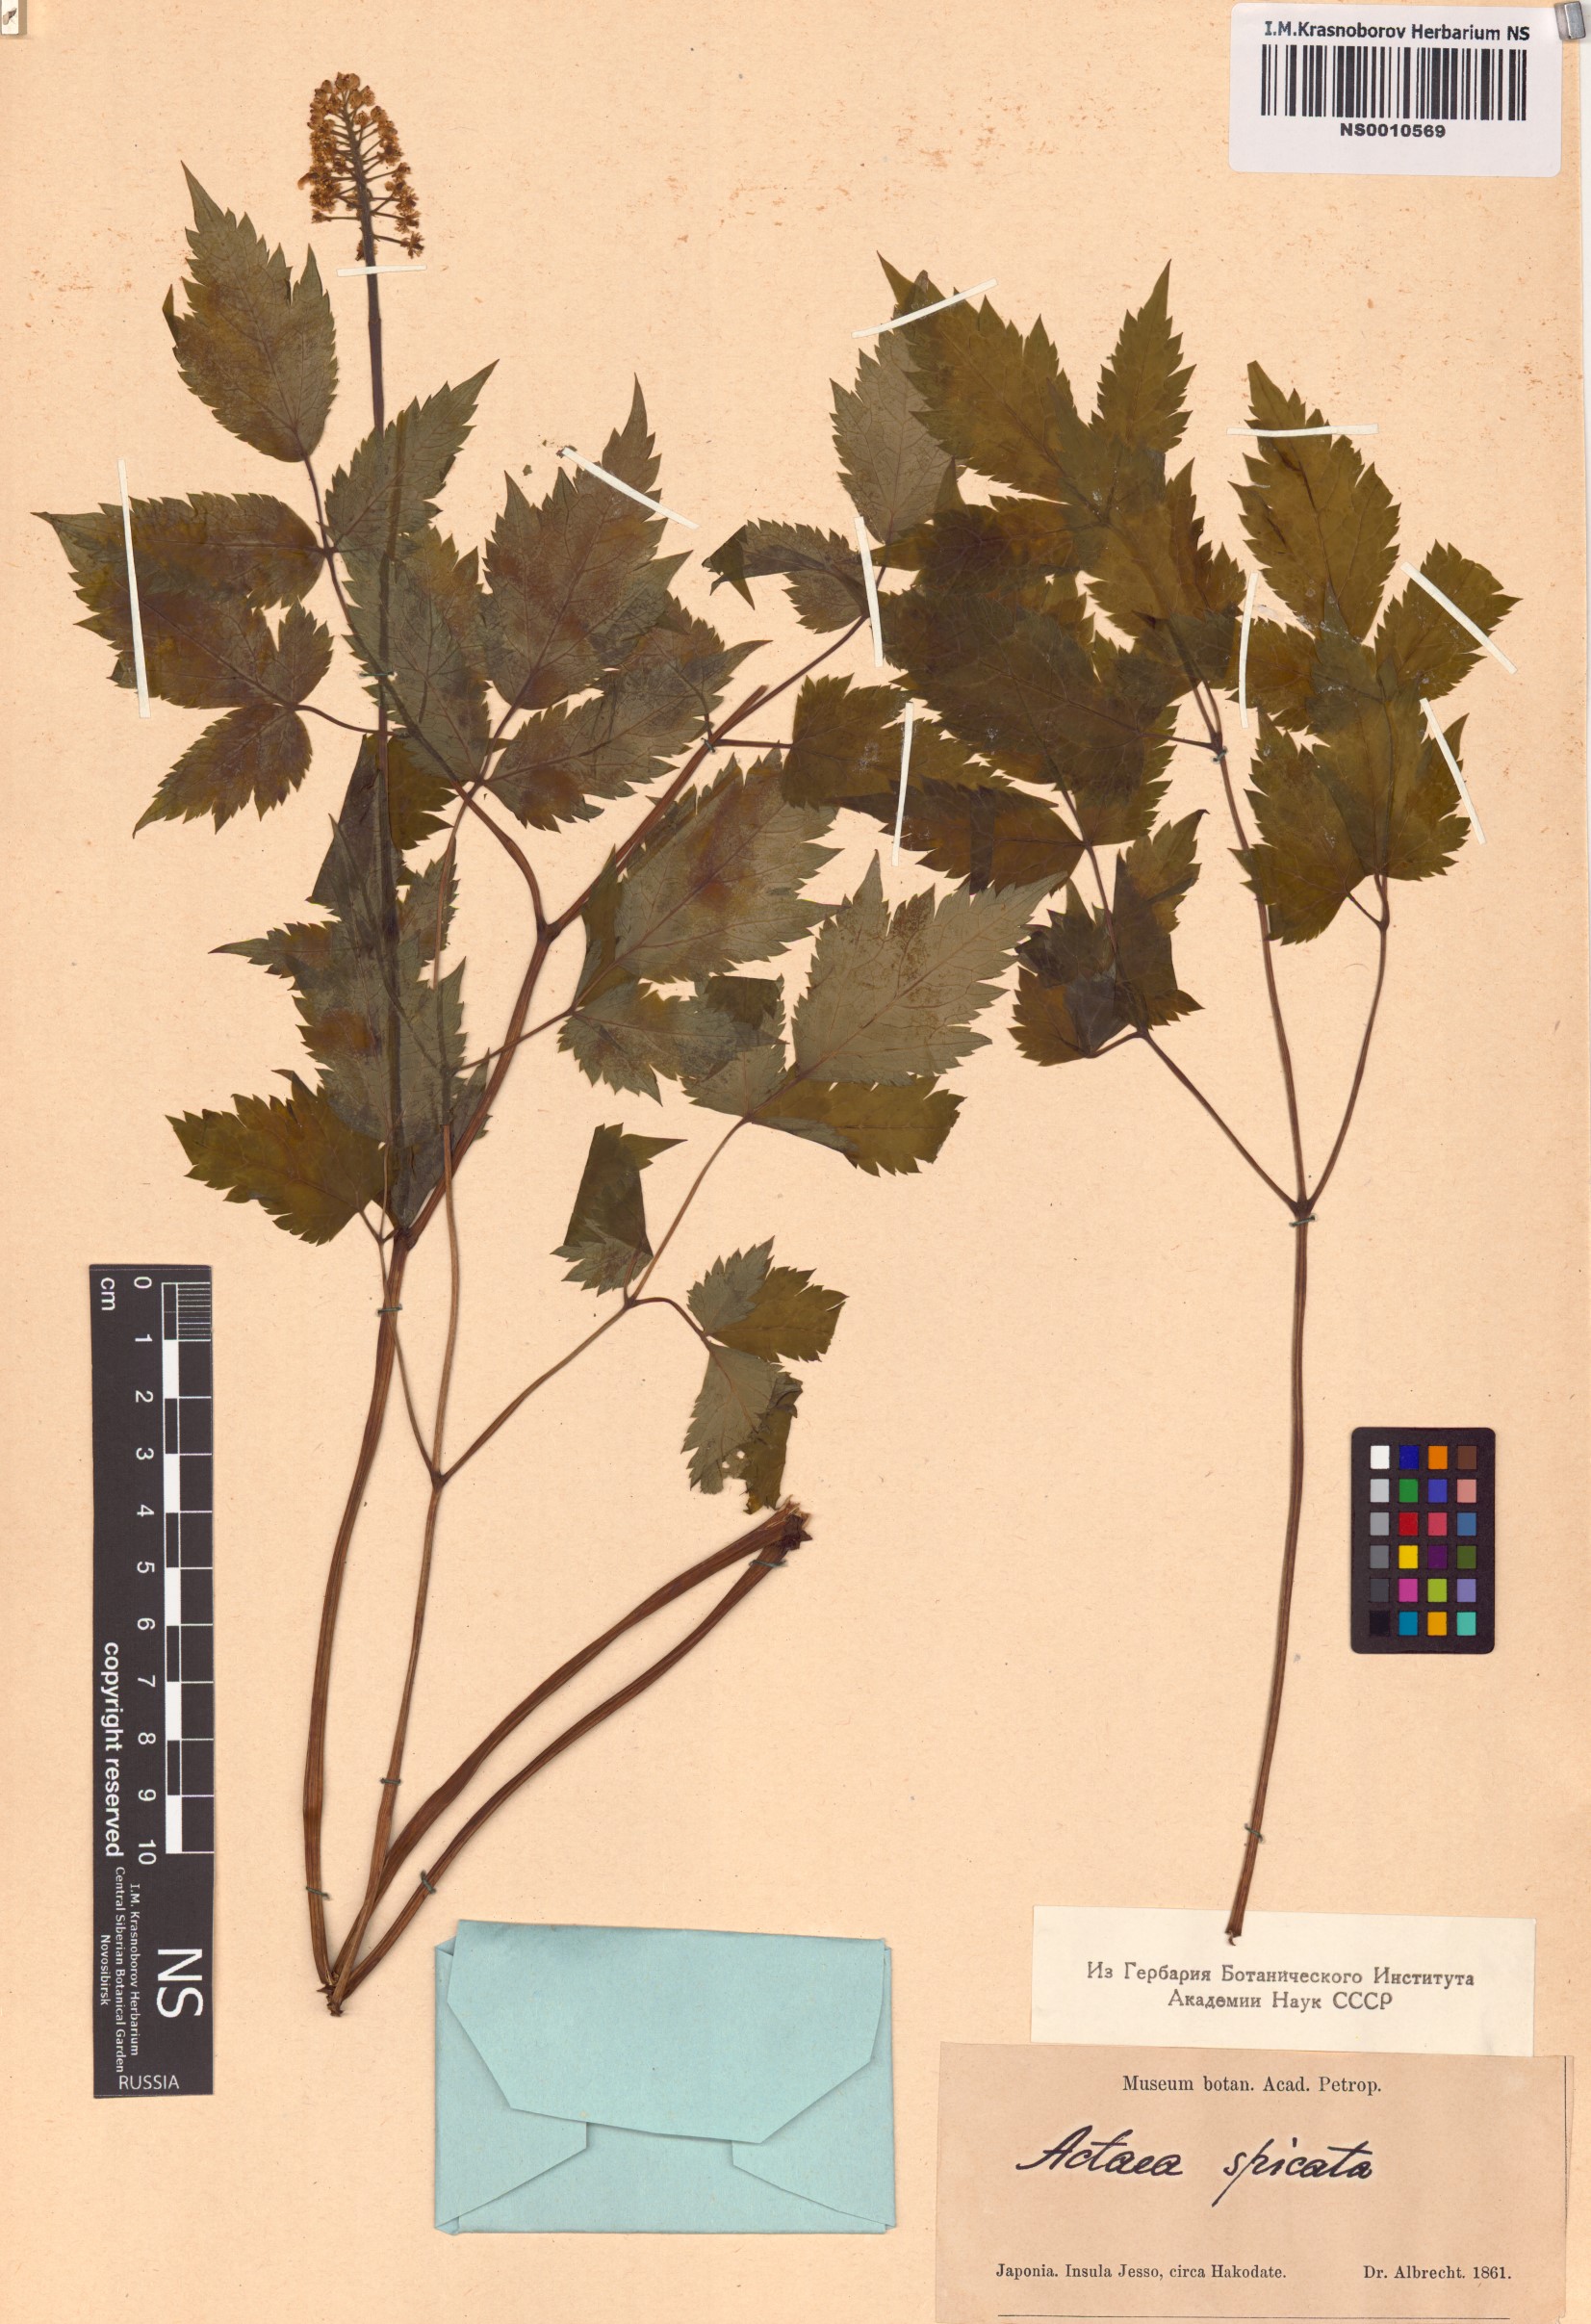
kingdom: Plantae
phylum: Tracheophyta
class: Magnoliopsida
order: Ranunculales
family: Ranunculaceae
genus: Actaea
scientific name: Actaea spicata
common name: Baneberry
